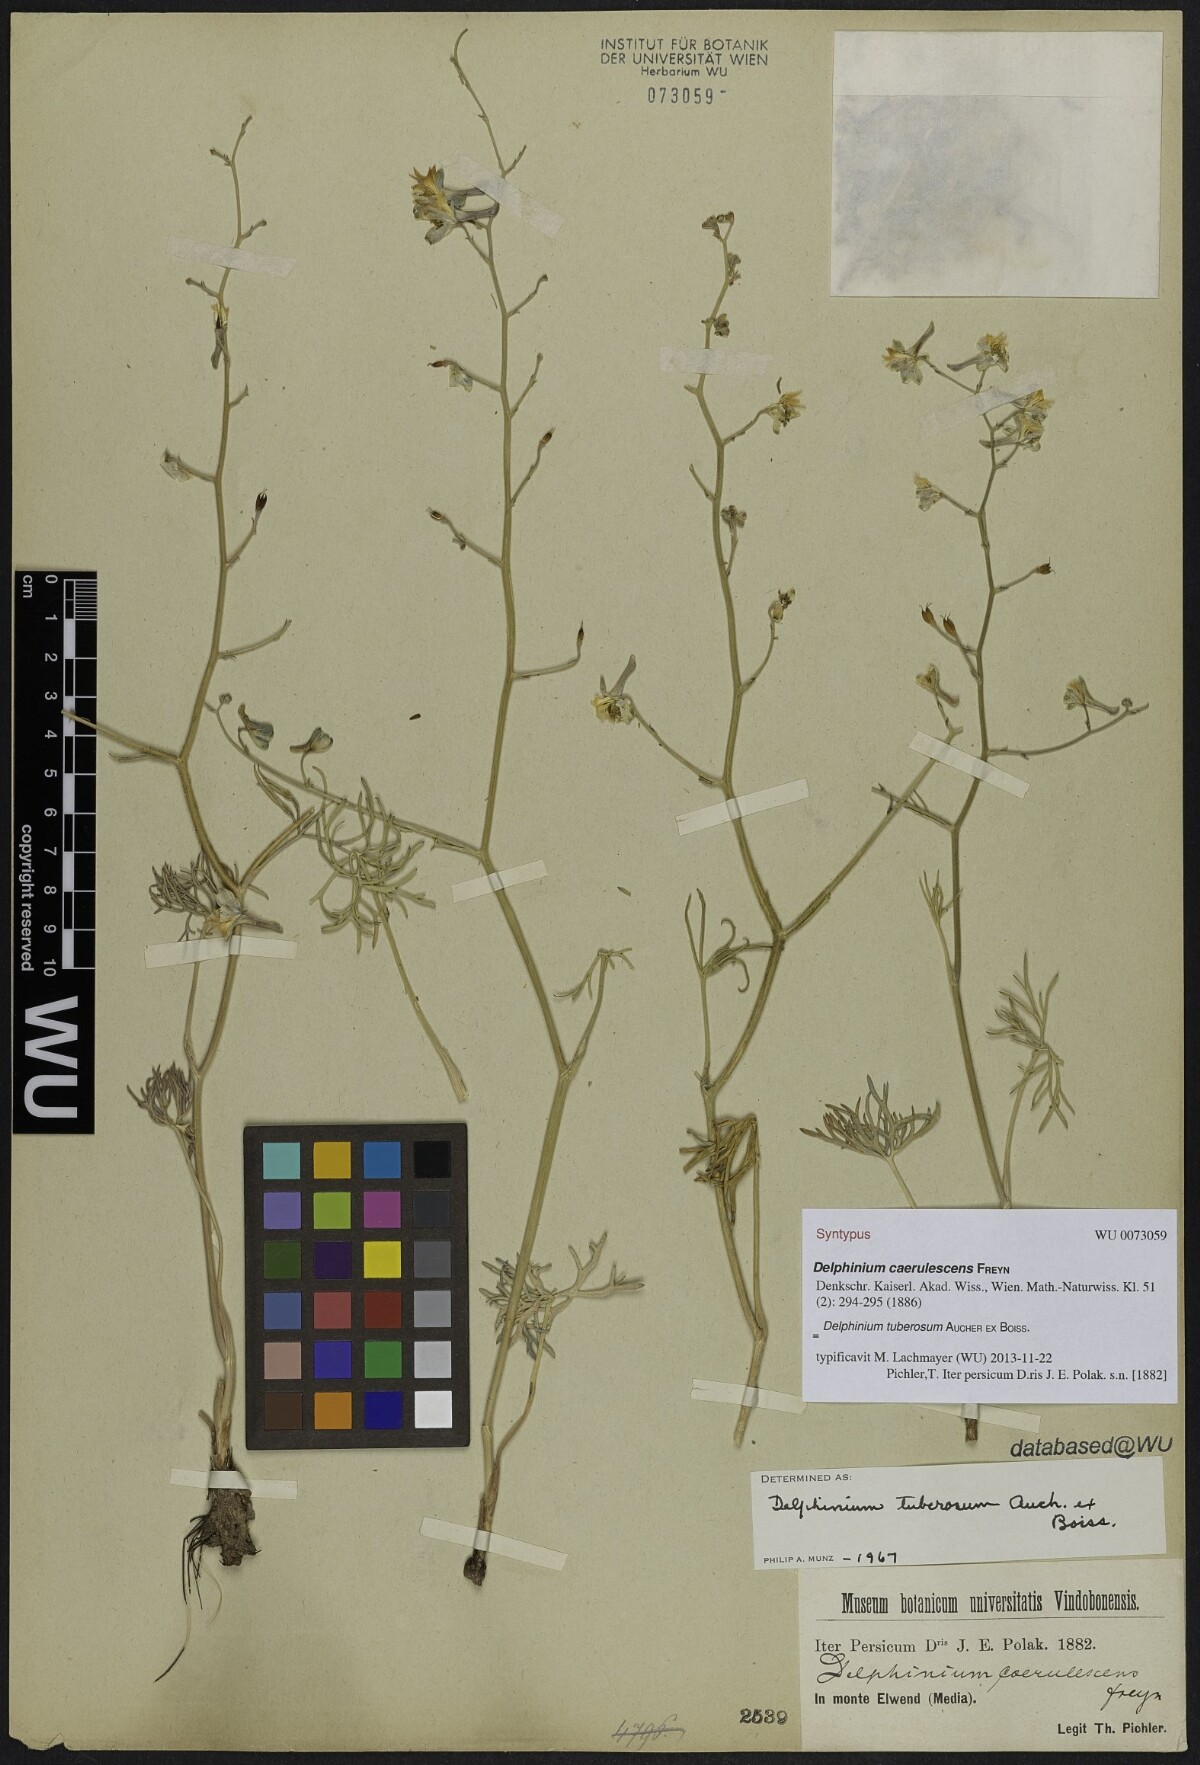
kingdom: Plantae
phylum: Tracheophyta
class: Magnoliopsida
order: Ranunculales
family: Ranunculaceae
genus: Delphinium
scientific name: Delphinium tuberosum
